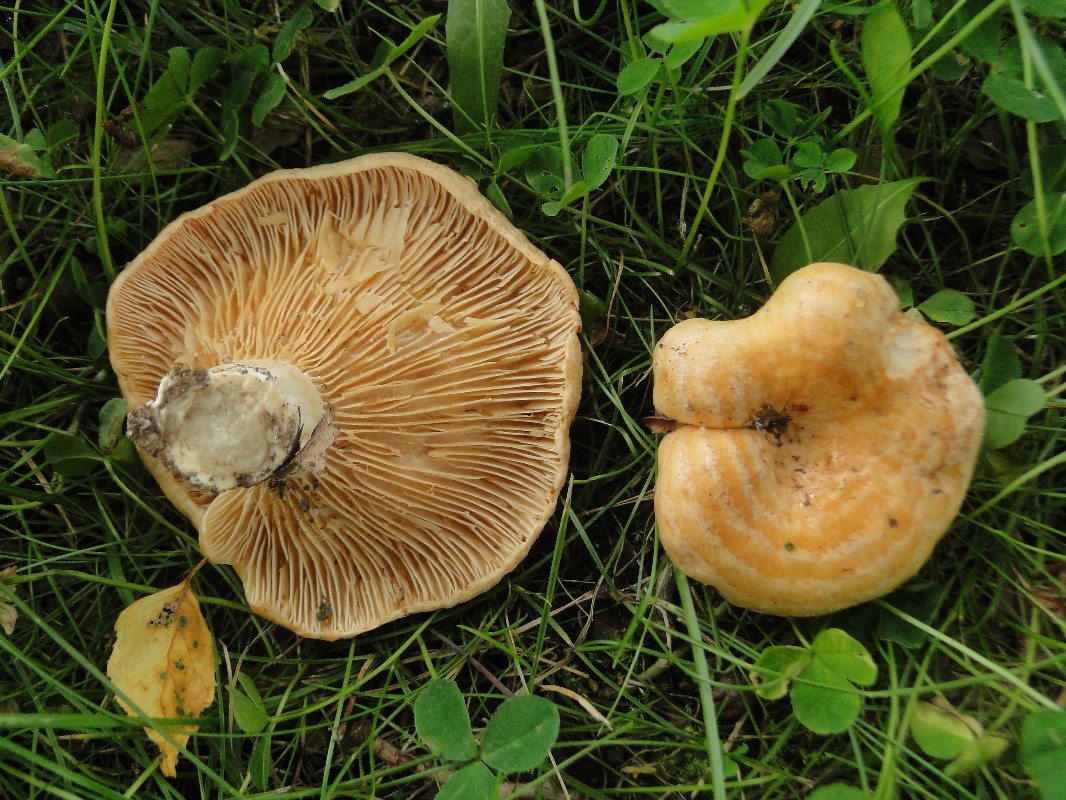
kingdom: Fungi
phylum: Basidiomycota
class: Agaricomycetes
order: Russulales
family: Russulaceae
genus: Lactarius
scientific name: Lactarius acerrimus
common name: brændende mælkehat
